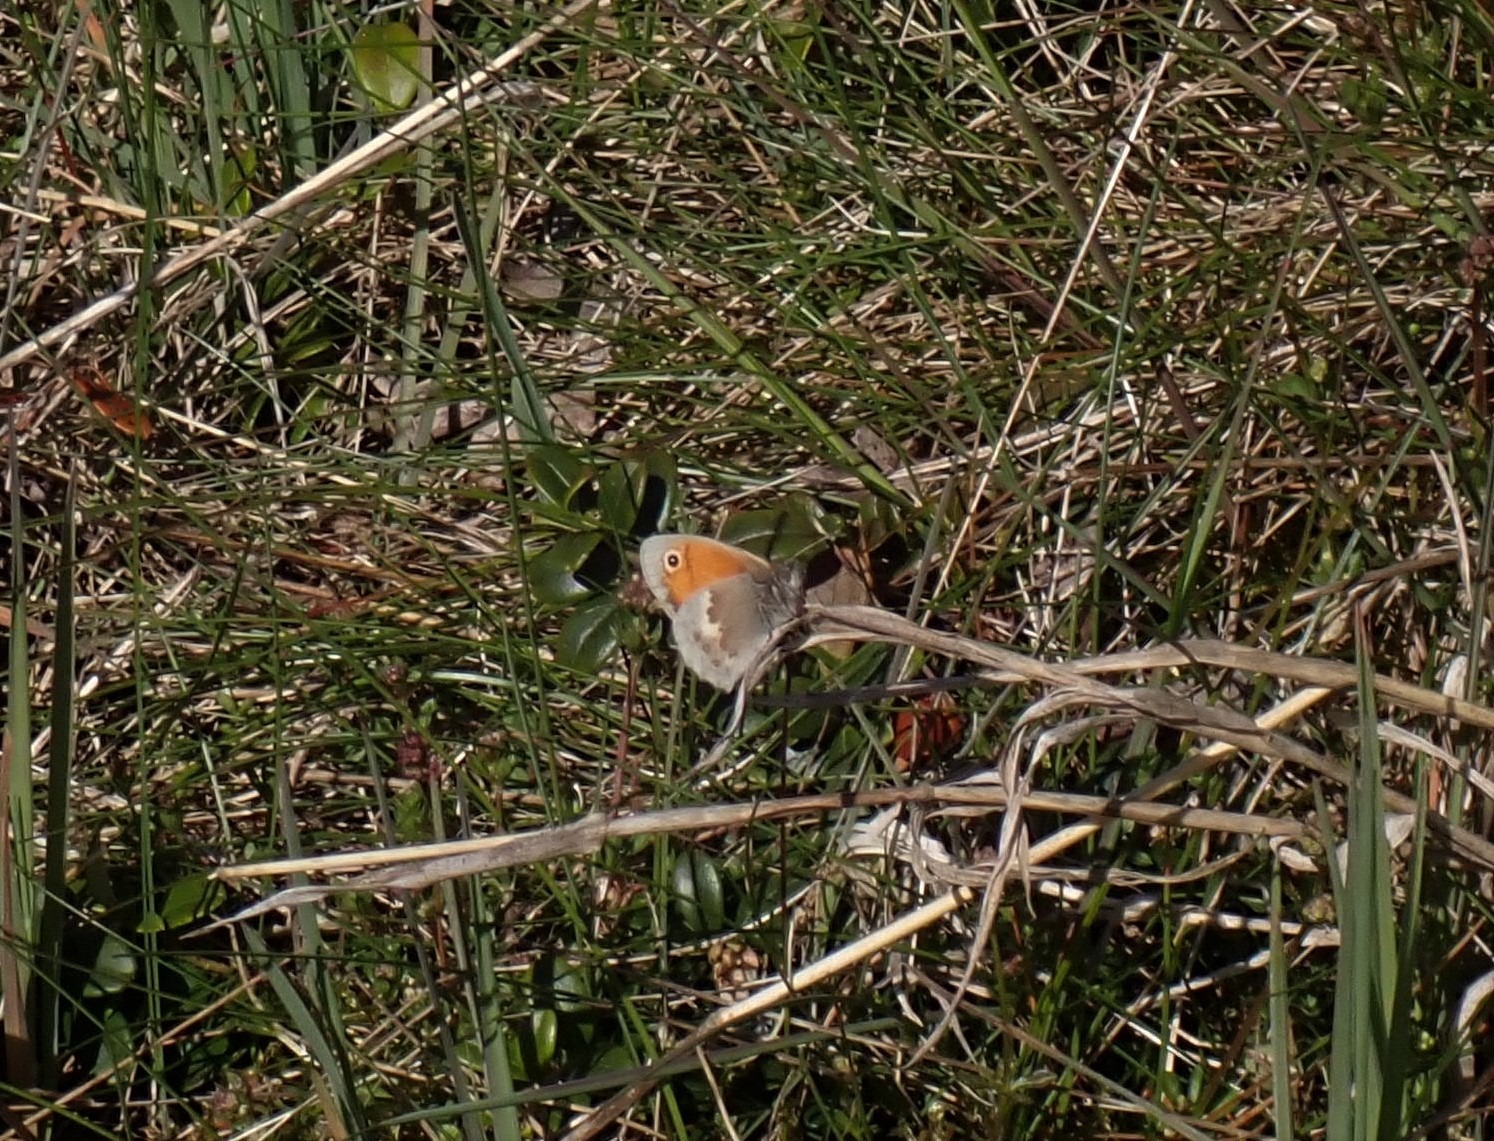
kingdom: Animalia
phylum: Arthropoda
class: Insecta
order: Lepidoptera
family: Nymphalidae
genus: Coenonympha
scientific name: Coenonympha pamphilus
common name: Okkergul randøje
